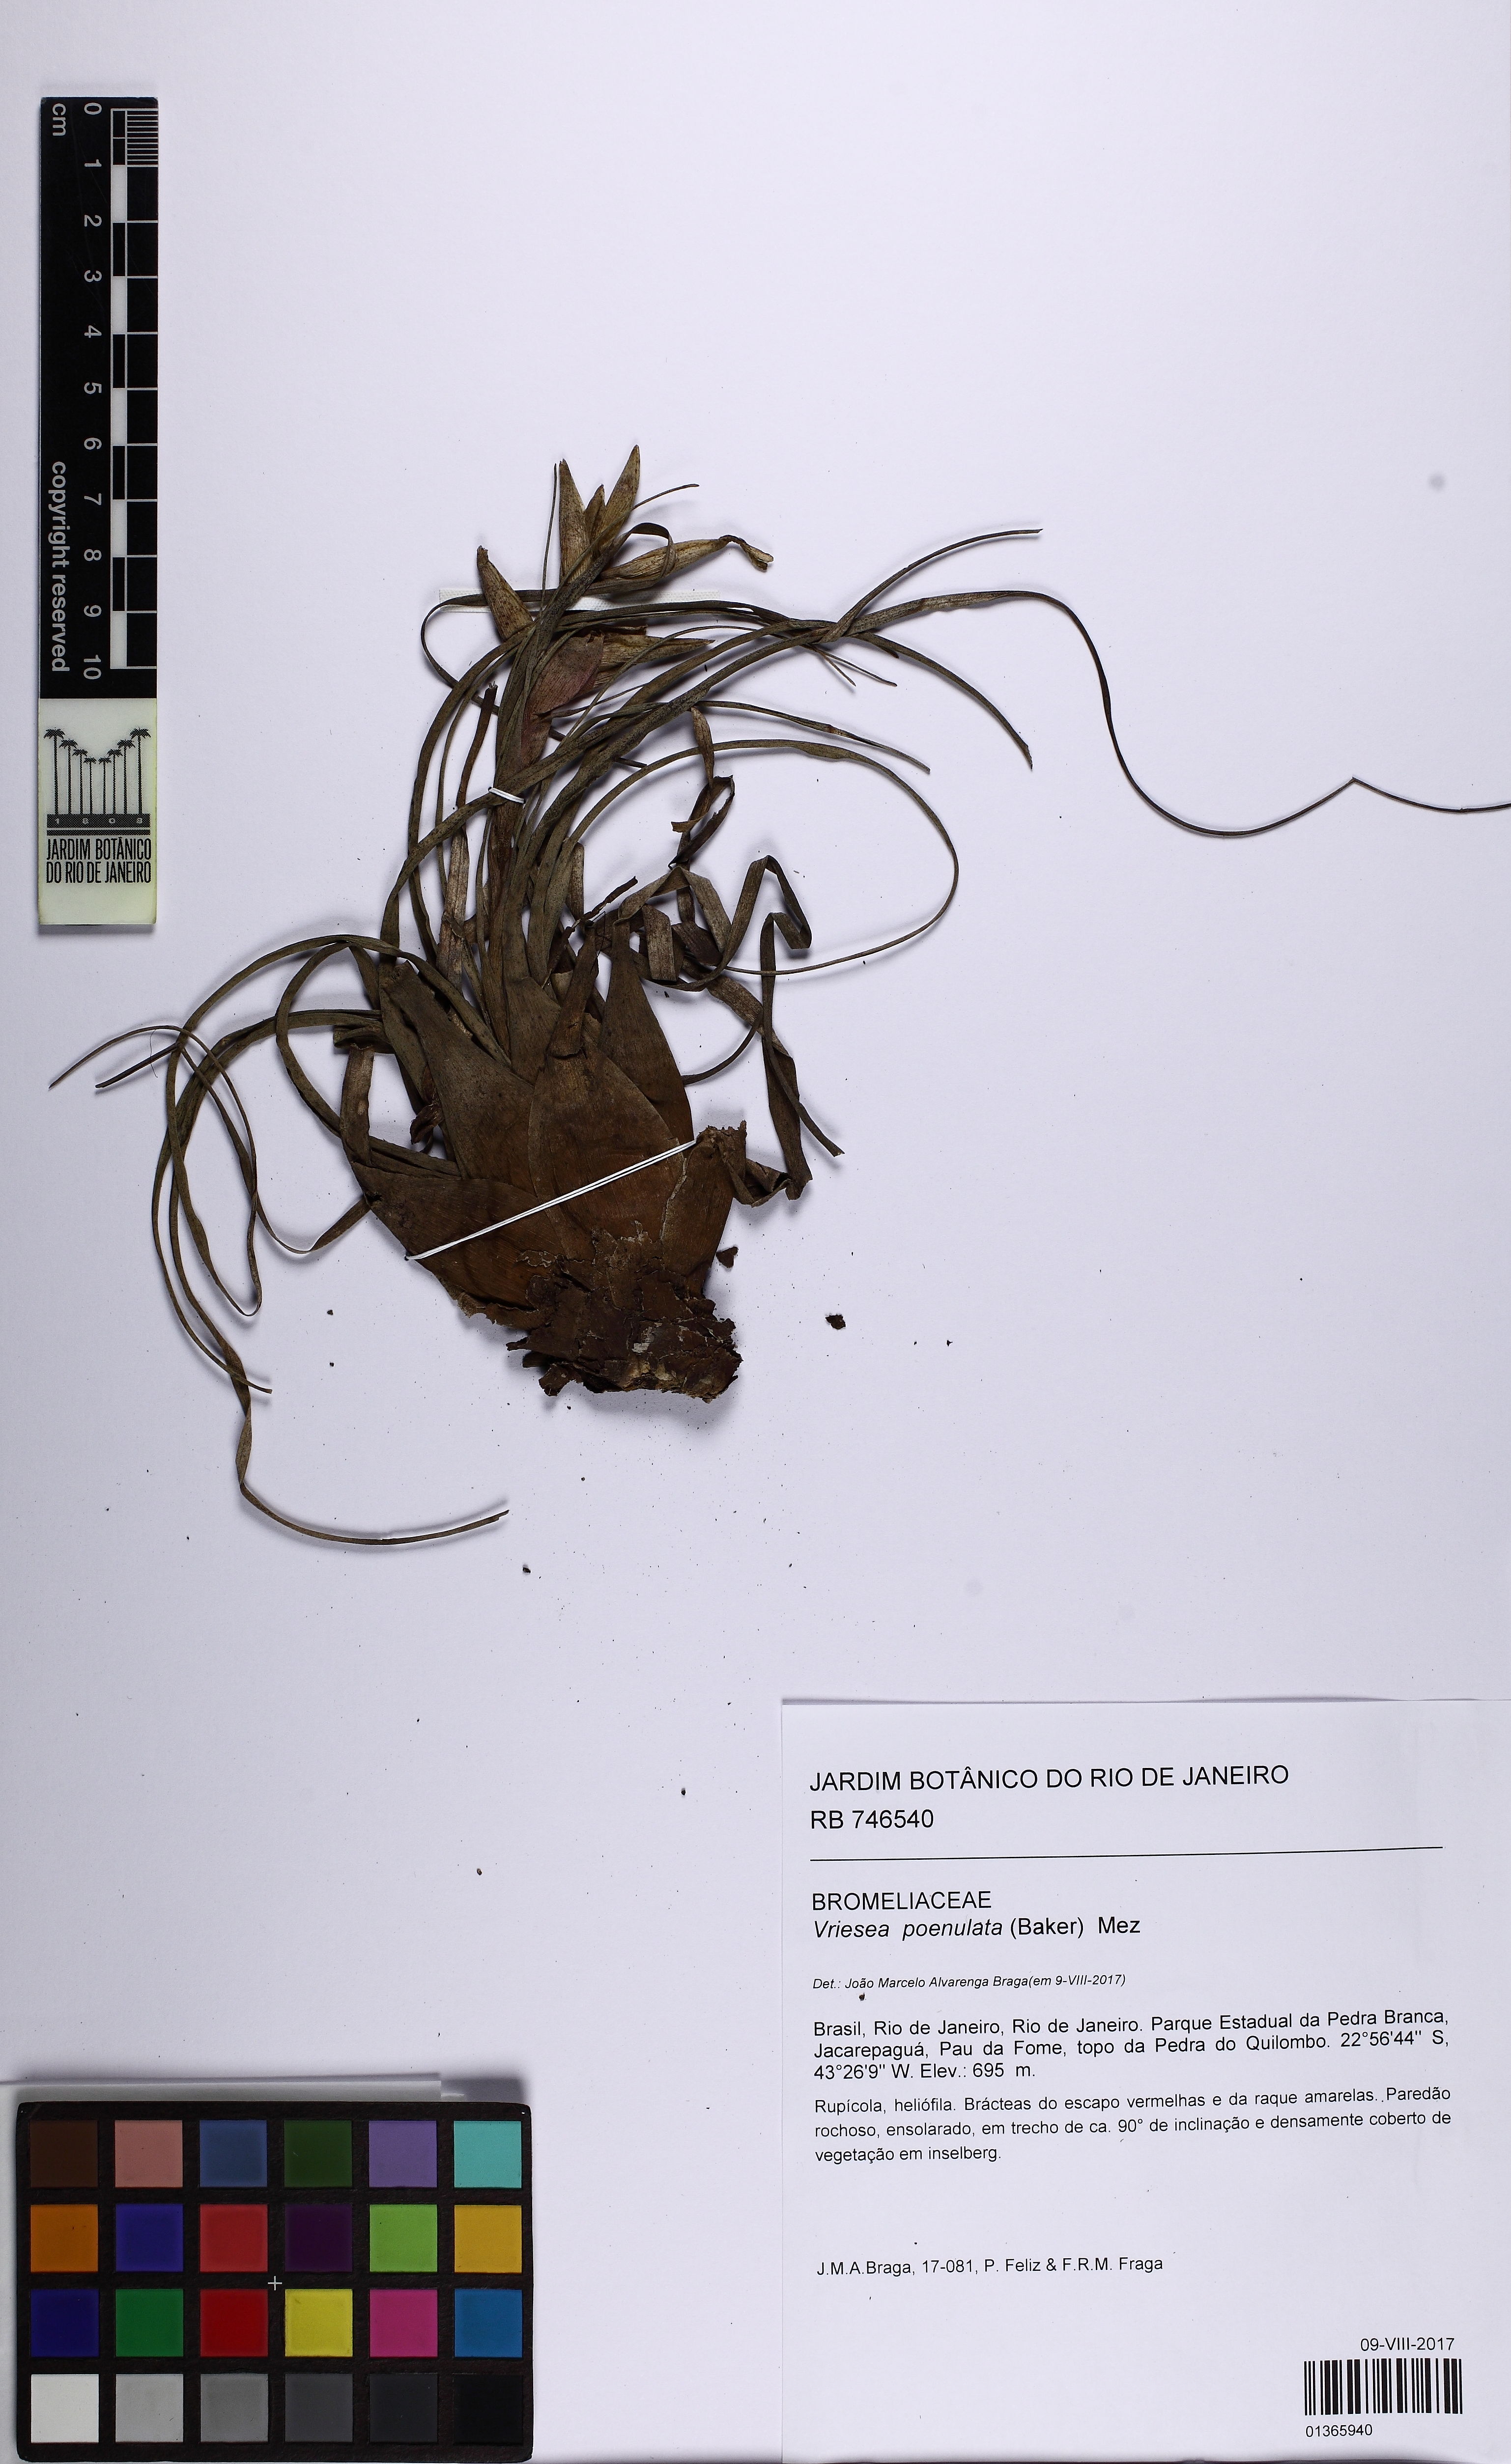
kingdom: Plantae
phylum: Tracheophyta
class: Liliopsida
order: Poales
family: Bromeliaceae
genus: Vriesea
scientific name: Vriesea poenulata
